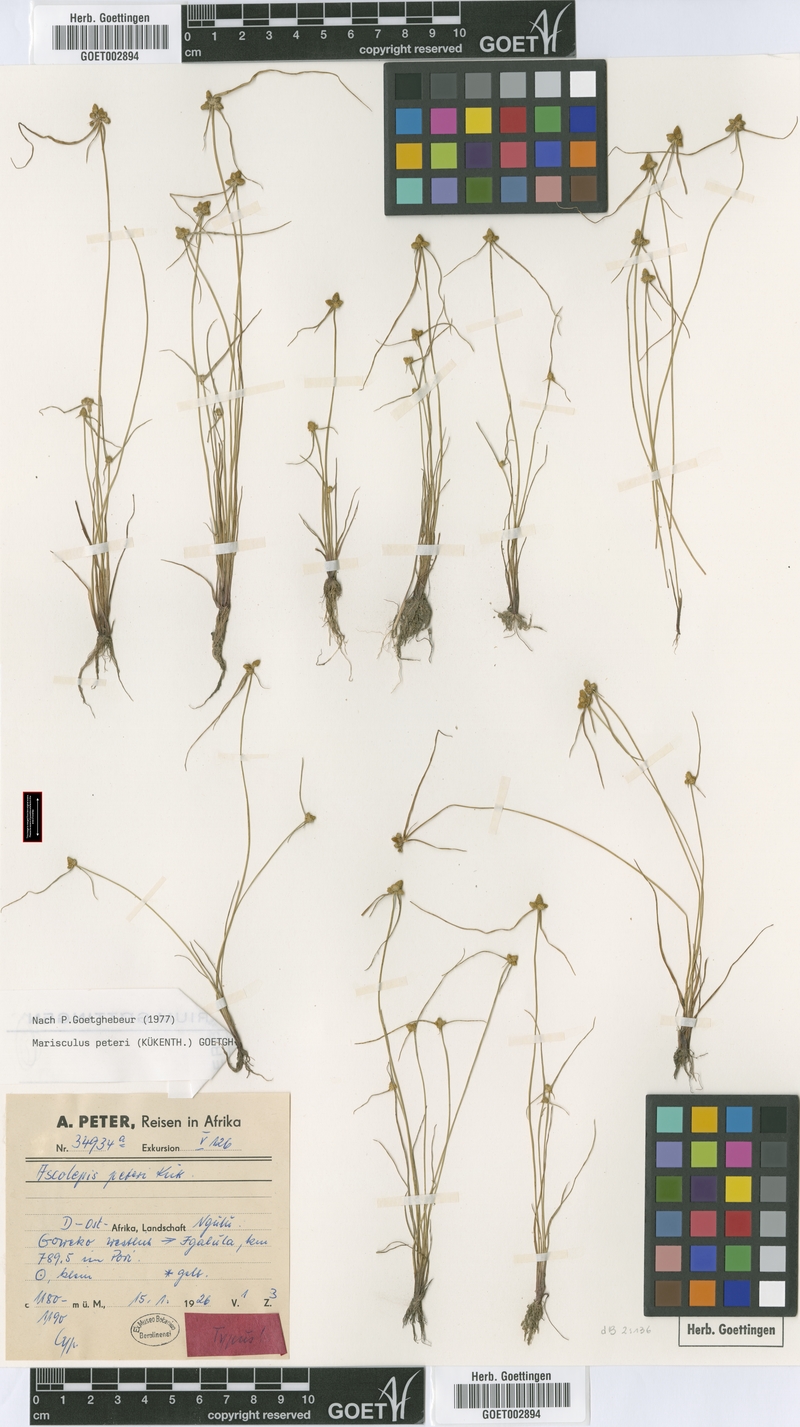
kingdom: Plantae
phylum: Tracheophyta
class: Liliopsida
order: Poales
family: Cyperaceae
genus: Cyperus
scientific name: Cyperus microaureus
